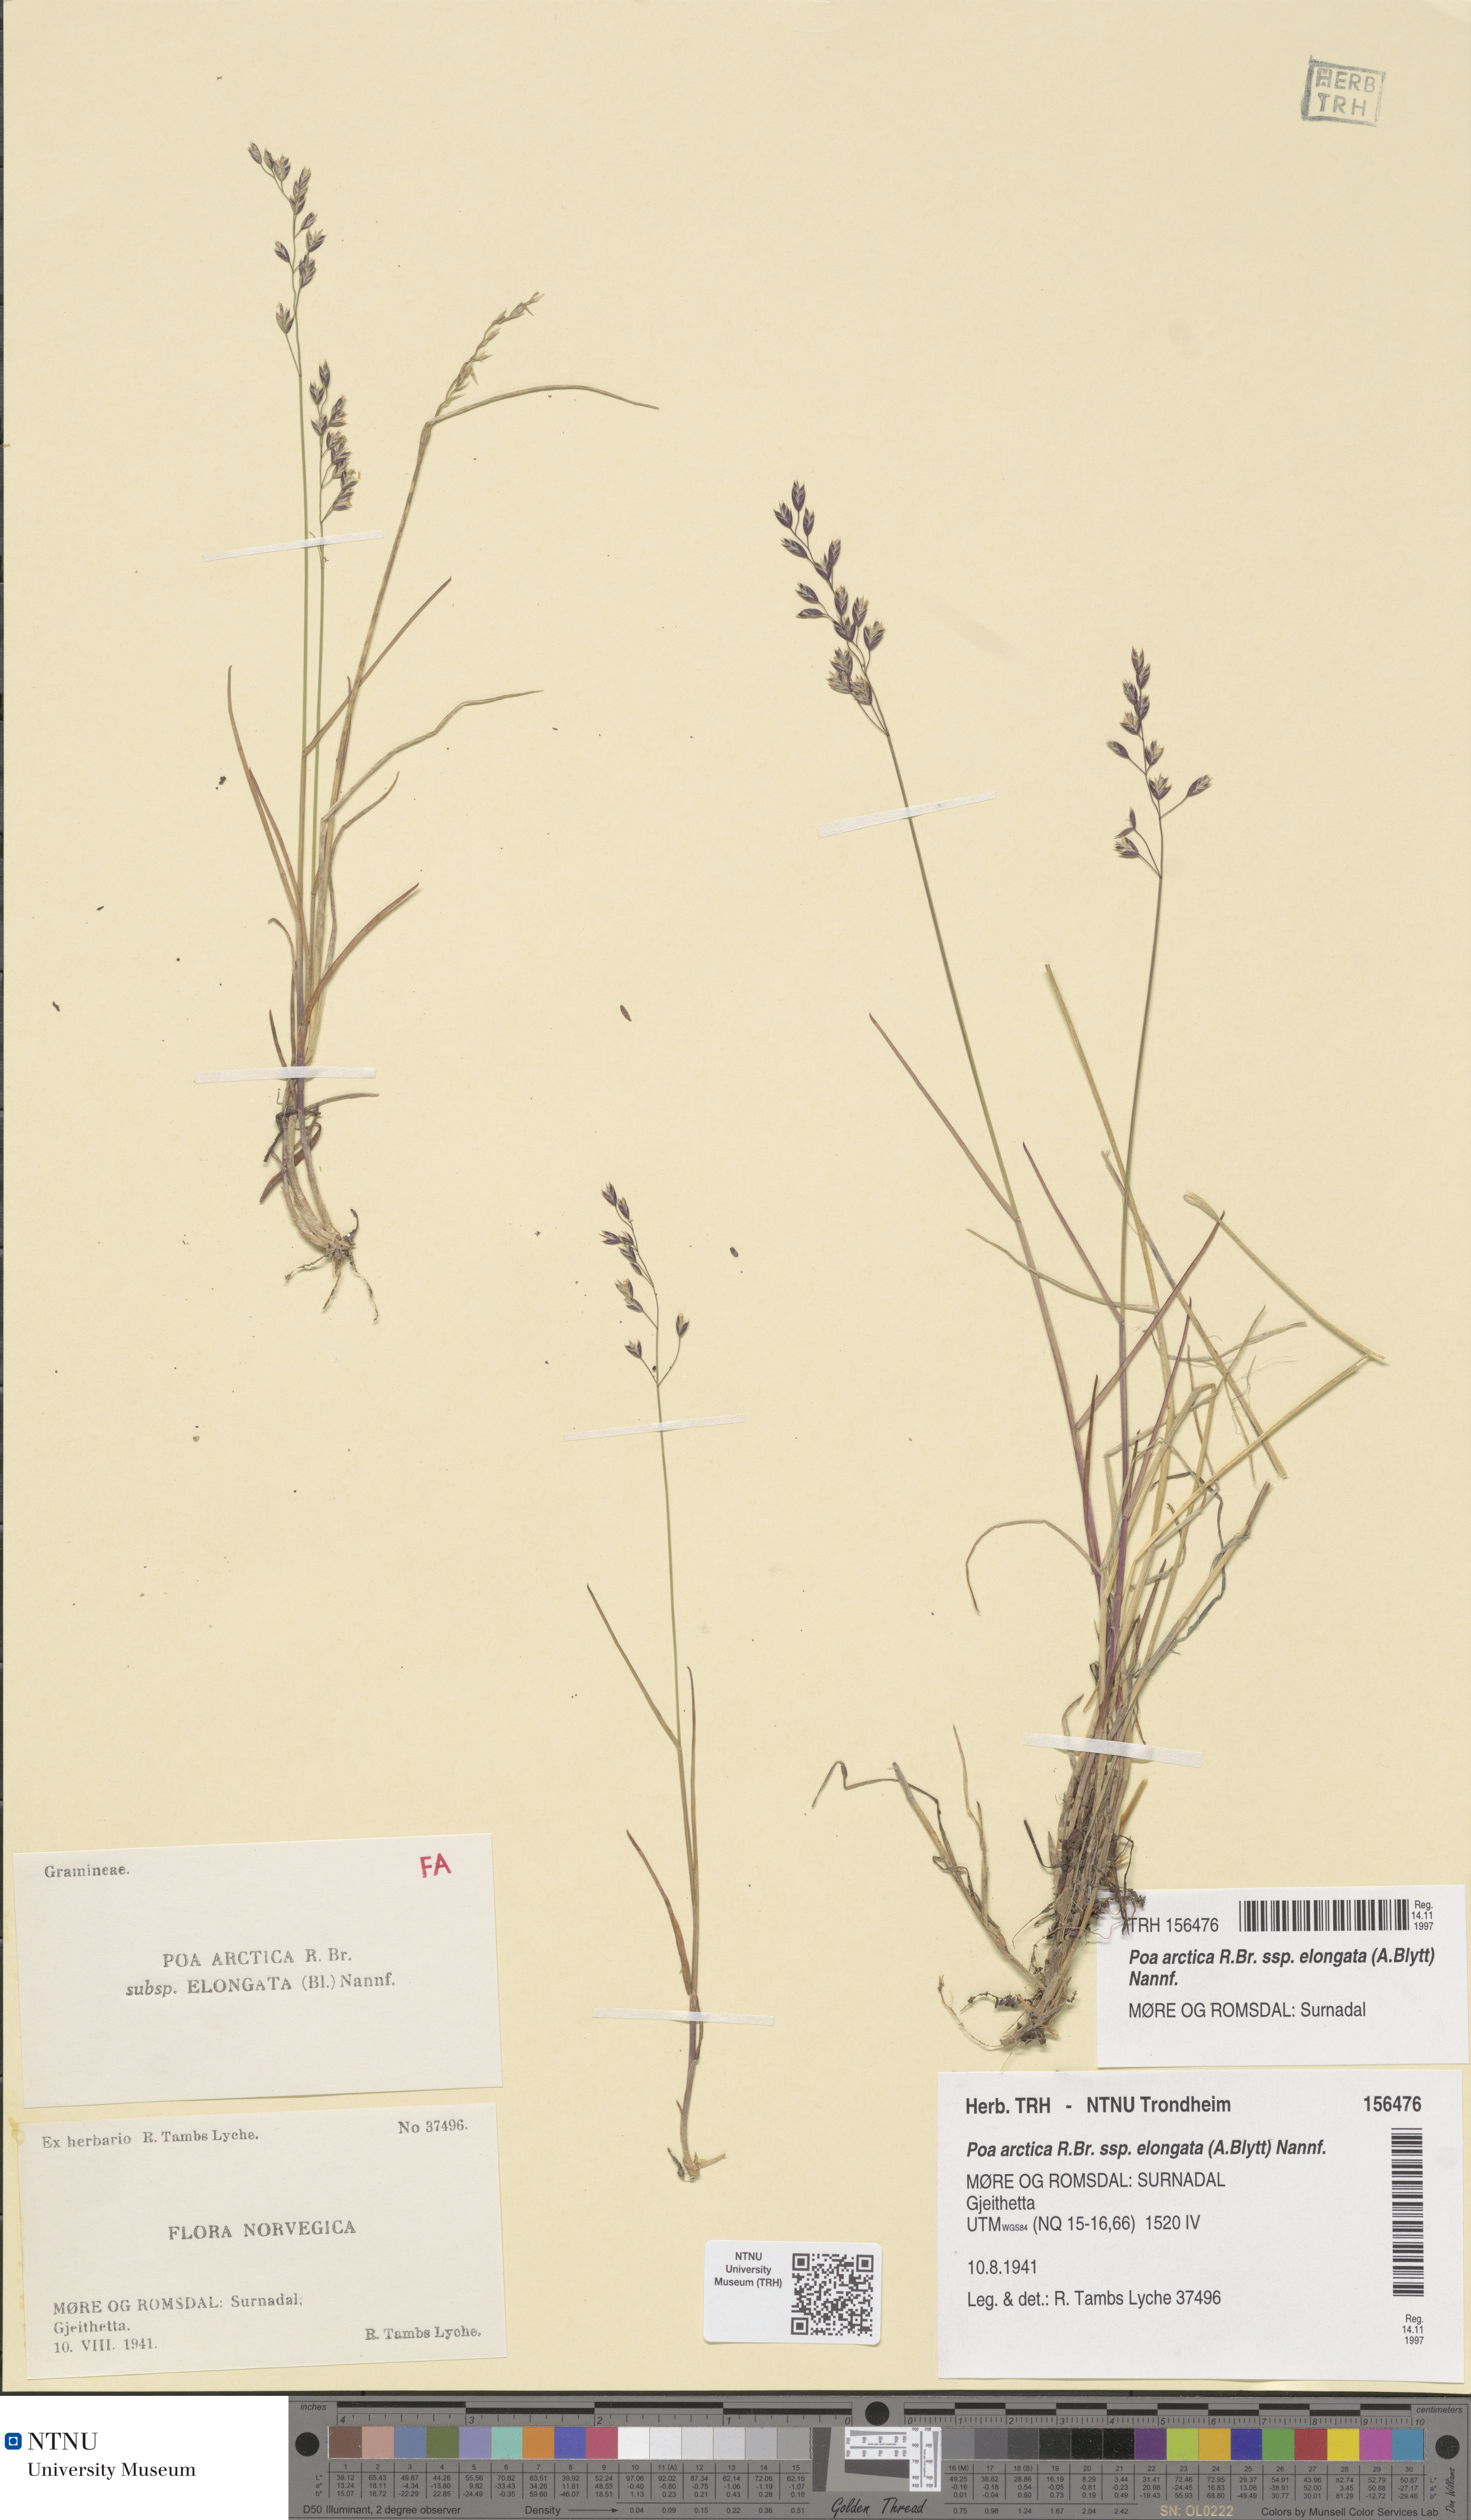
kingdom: Plantae
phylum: Tracheophyta
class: Liliopsida
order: Poales
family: Poaceae
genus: Poa
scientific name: Poa arctica
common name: Arctic bluegrass
